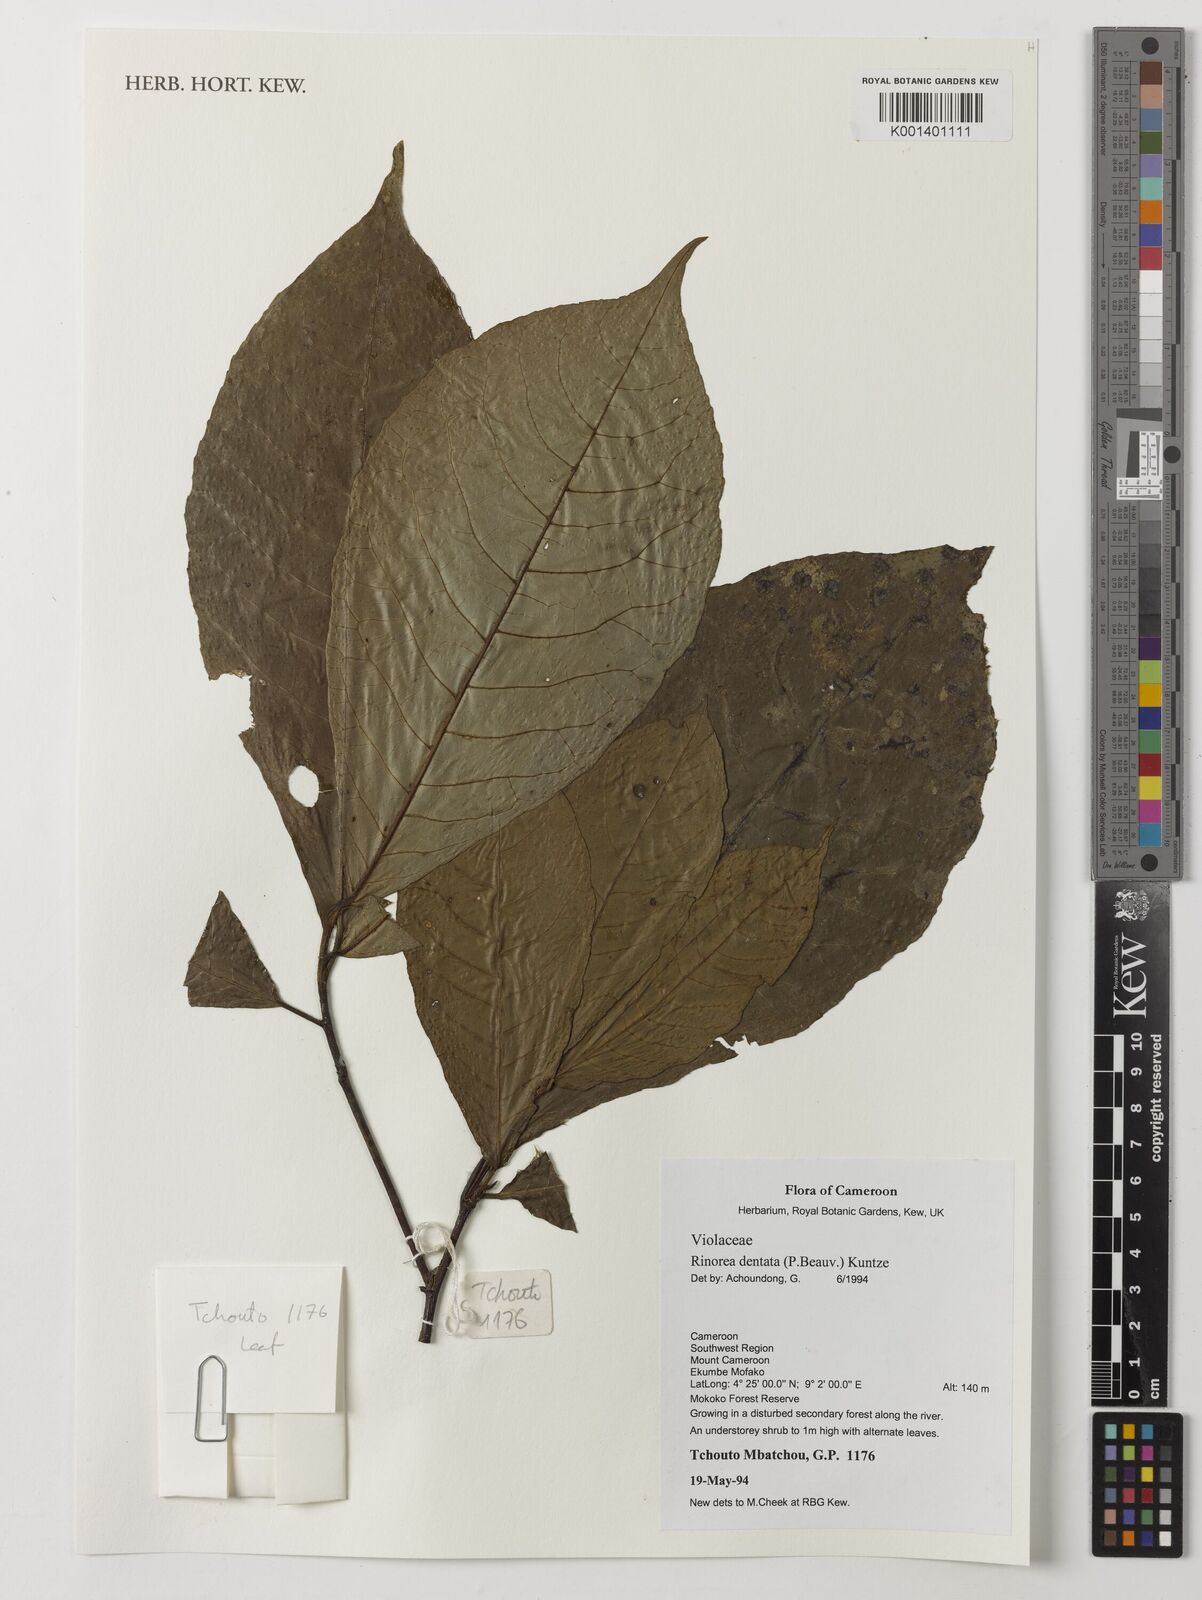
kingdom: Plantae
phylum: Tracheophyta
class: Magnoliopsida
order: Malpighiales
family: Violaceae
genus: Rinorea
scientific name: Rinorea dentata
